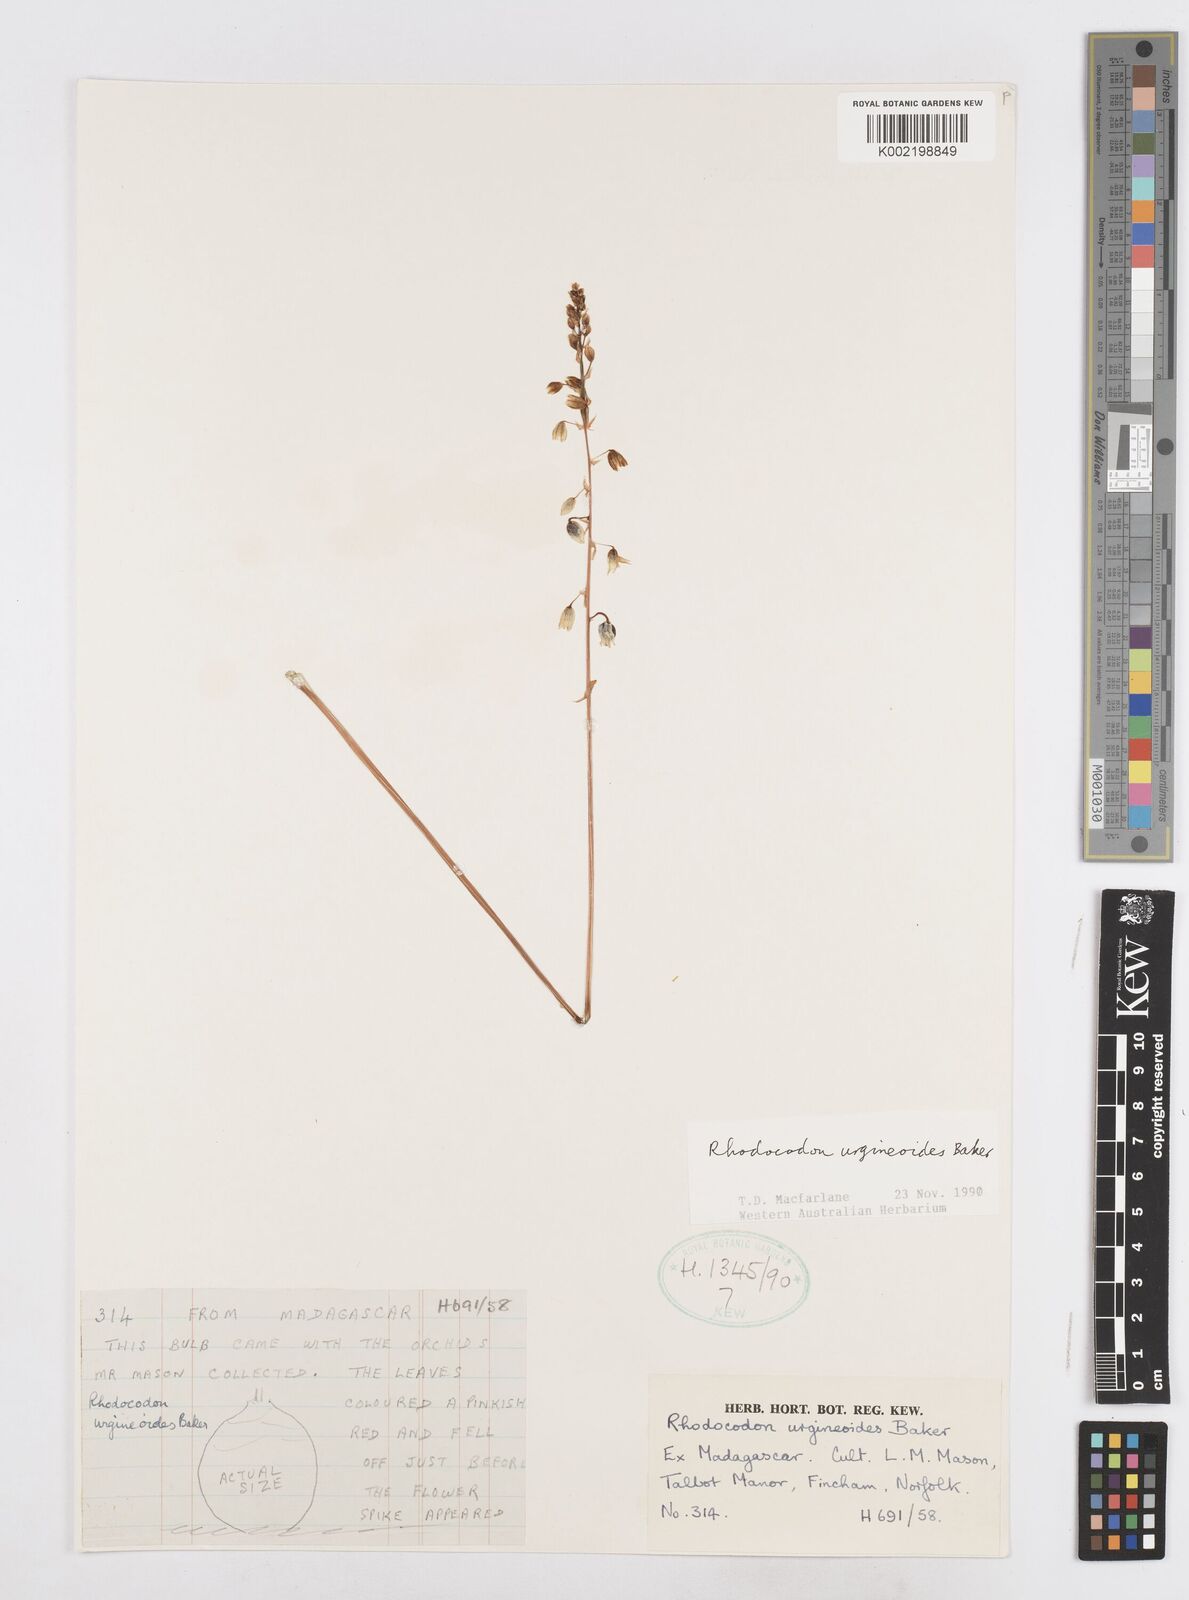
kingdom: Plantae
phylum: Tracheophyta
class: Liliopsida
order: Asparagales
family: Asparagaceae
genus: Drimia
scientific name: Drimia urgineoides
